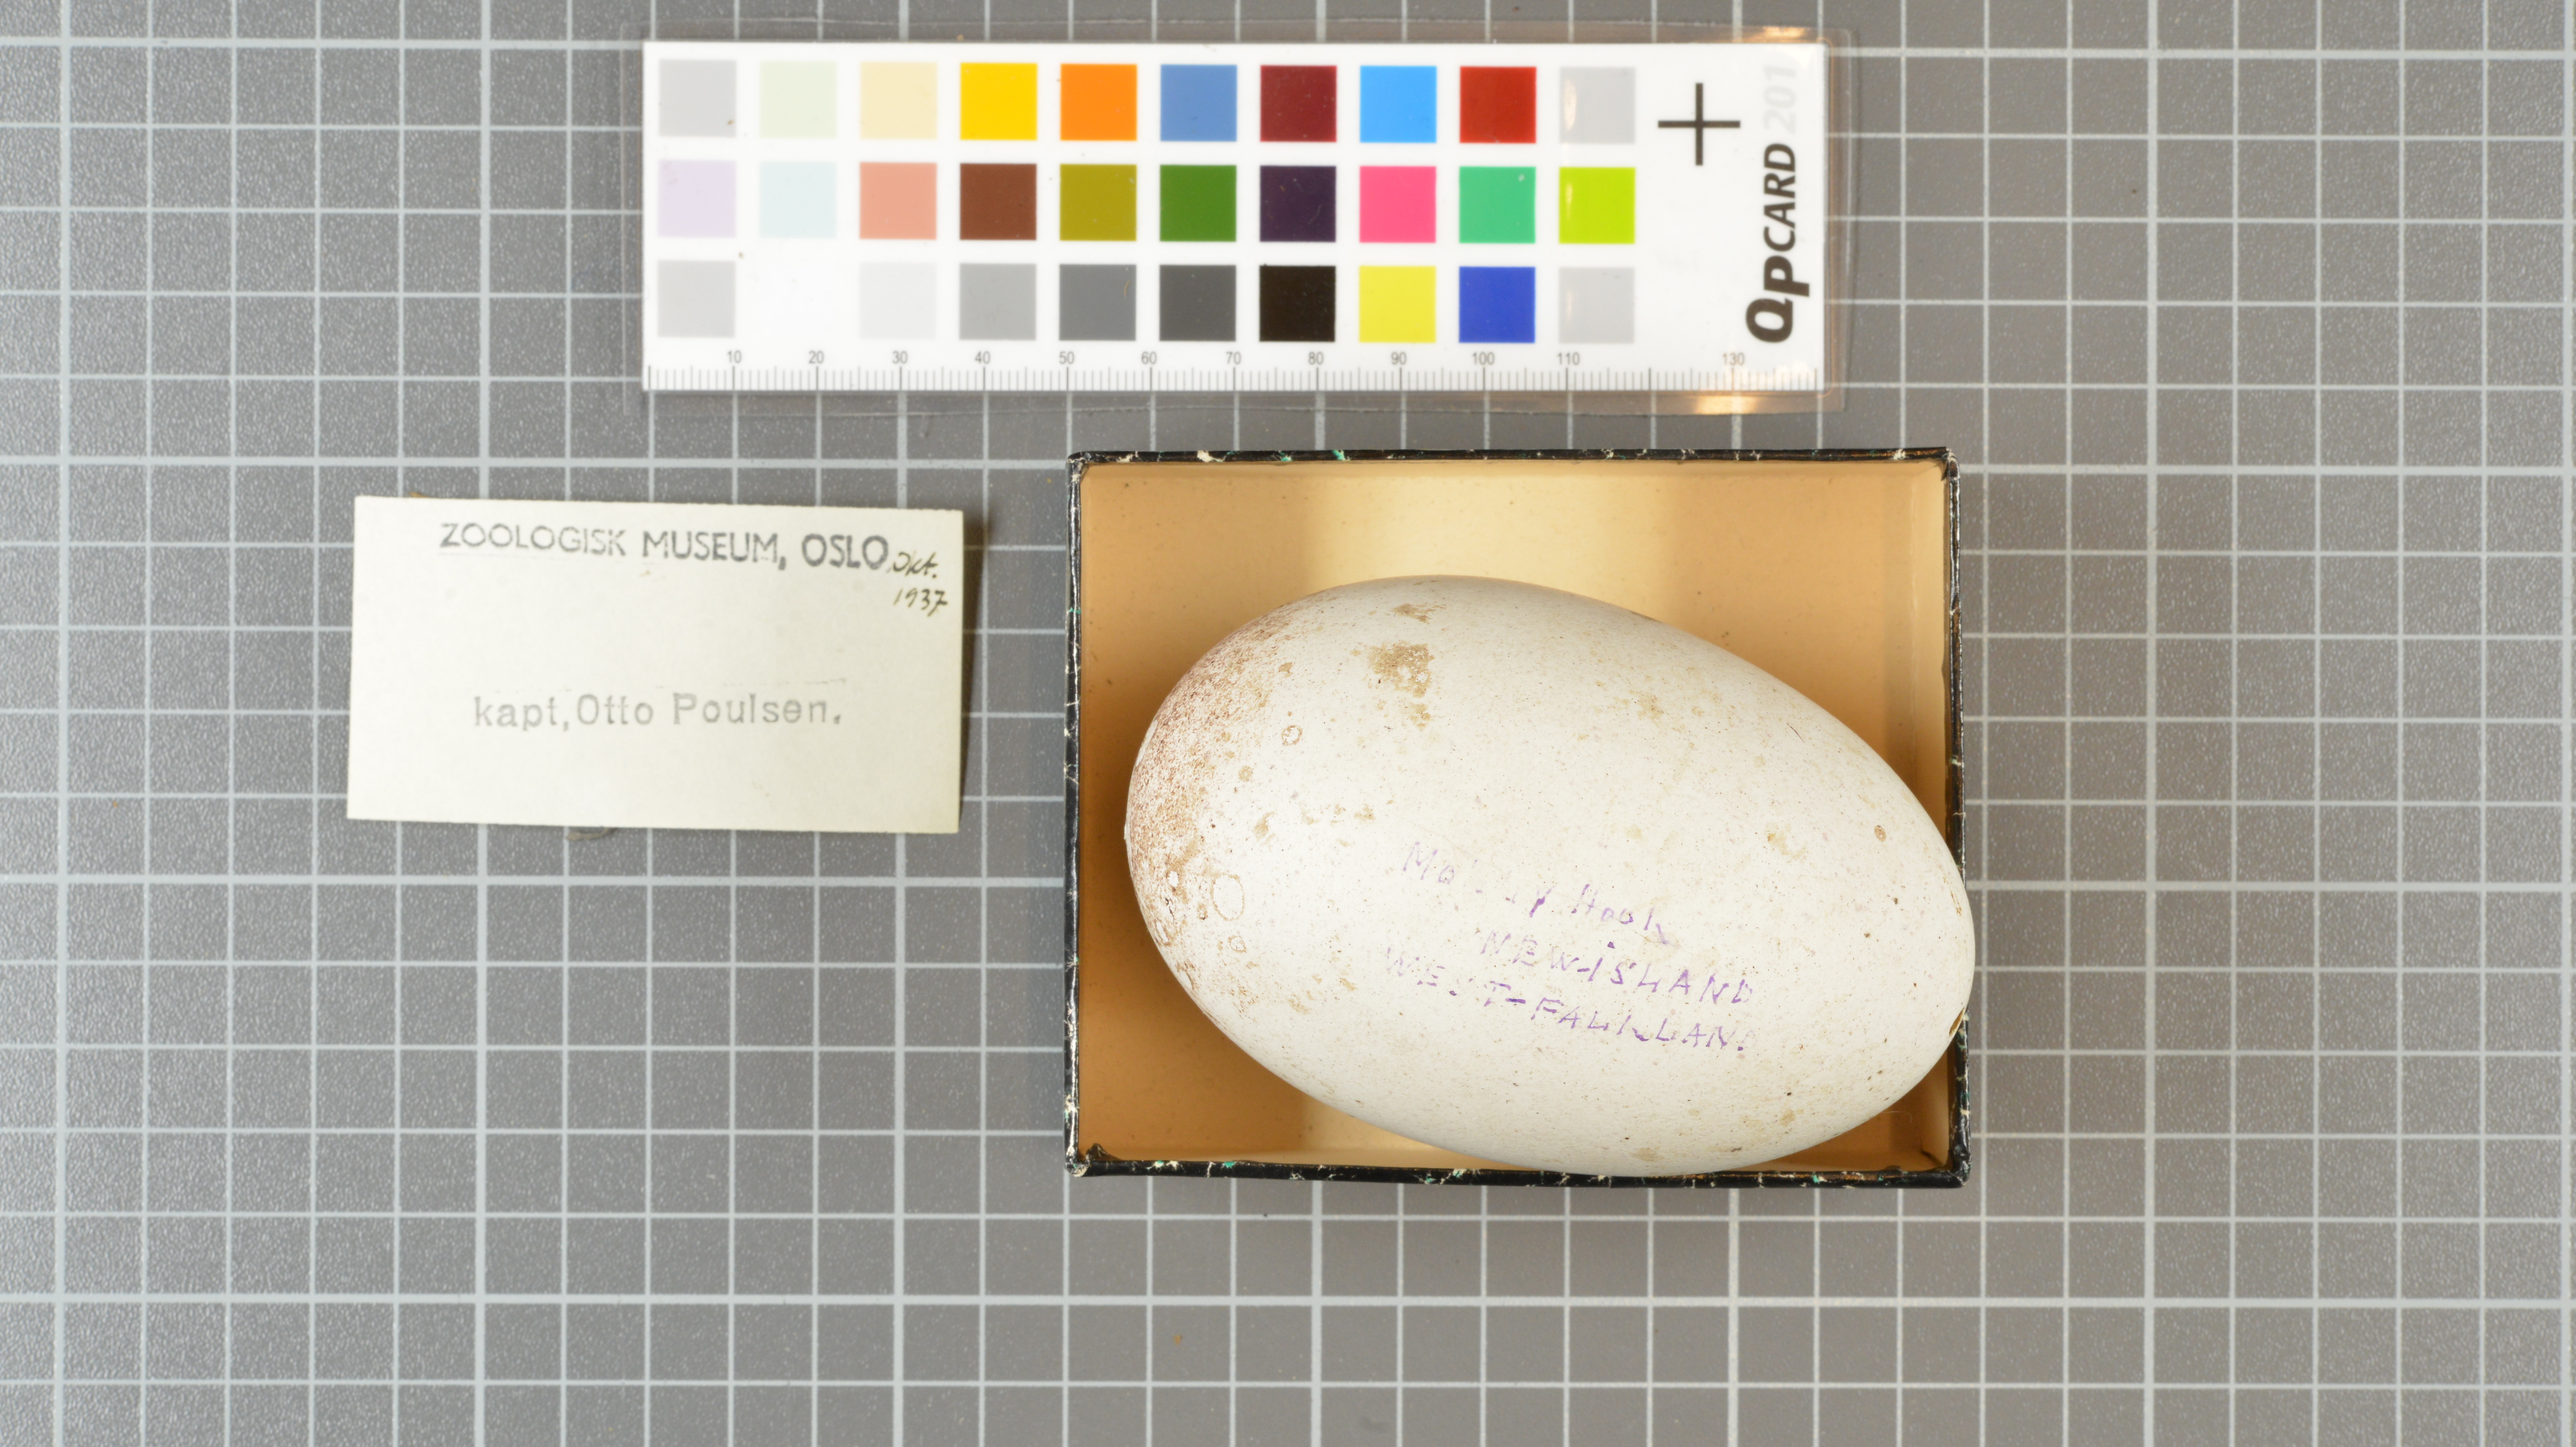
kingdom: Animalia
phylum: Chordata
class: Aves
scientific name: Aves
